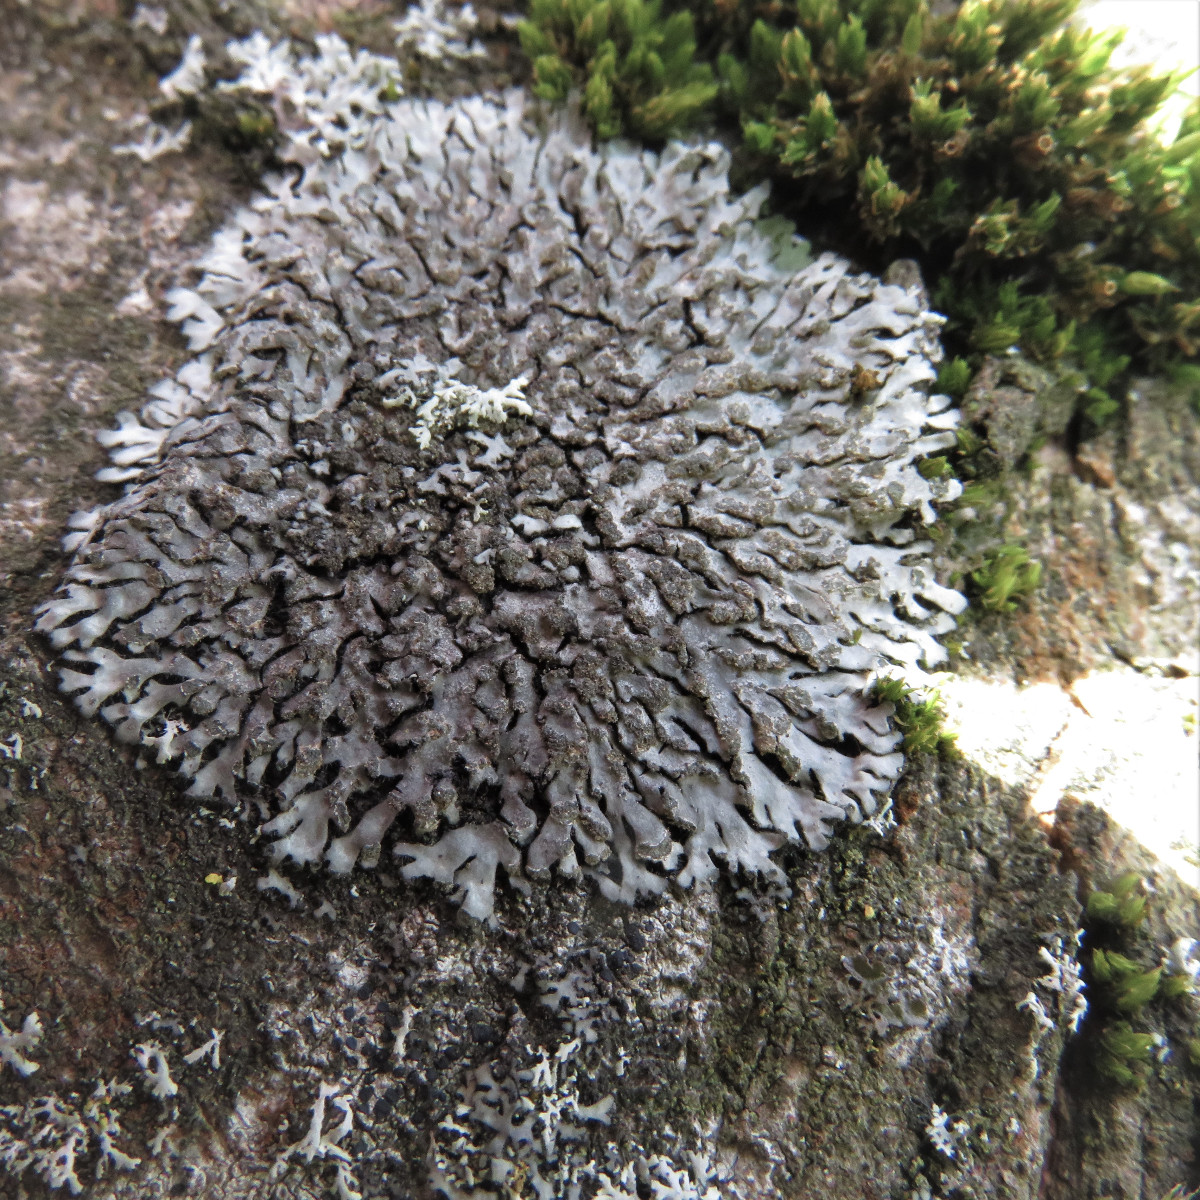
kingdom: Fungi
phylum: Ascomycota
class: Lecanoromycetes
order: Caliciales
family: Physciaceae
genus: Phaeophyscia
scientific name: Phaeophyscia orbicularis
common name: grågrøn rosetlav
